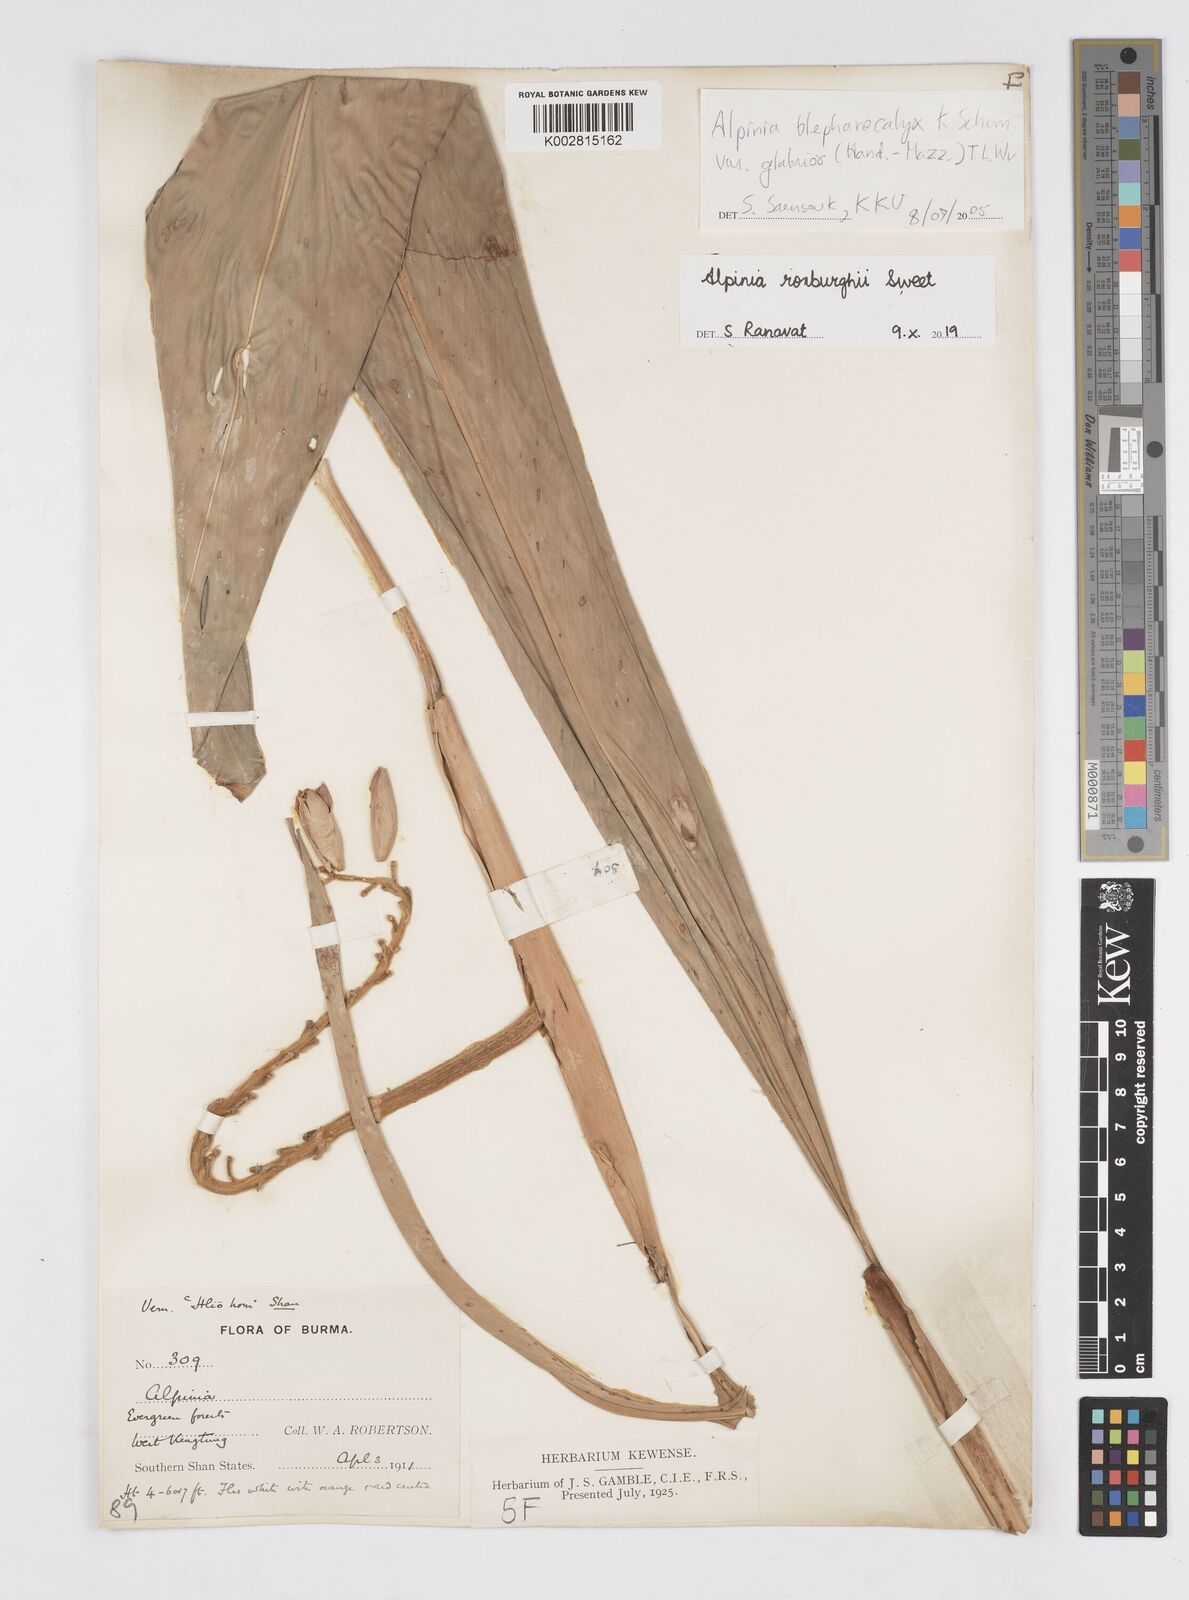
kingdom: Plantae
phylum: Tracheophyta
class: Liliopsida
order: Zingiberales
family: Zingiberaceae
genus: Alpinia
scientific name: Alpinia roxburghii
